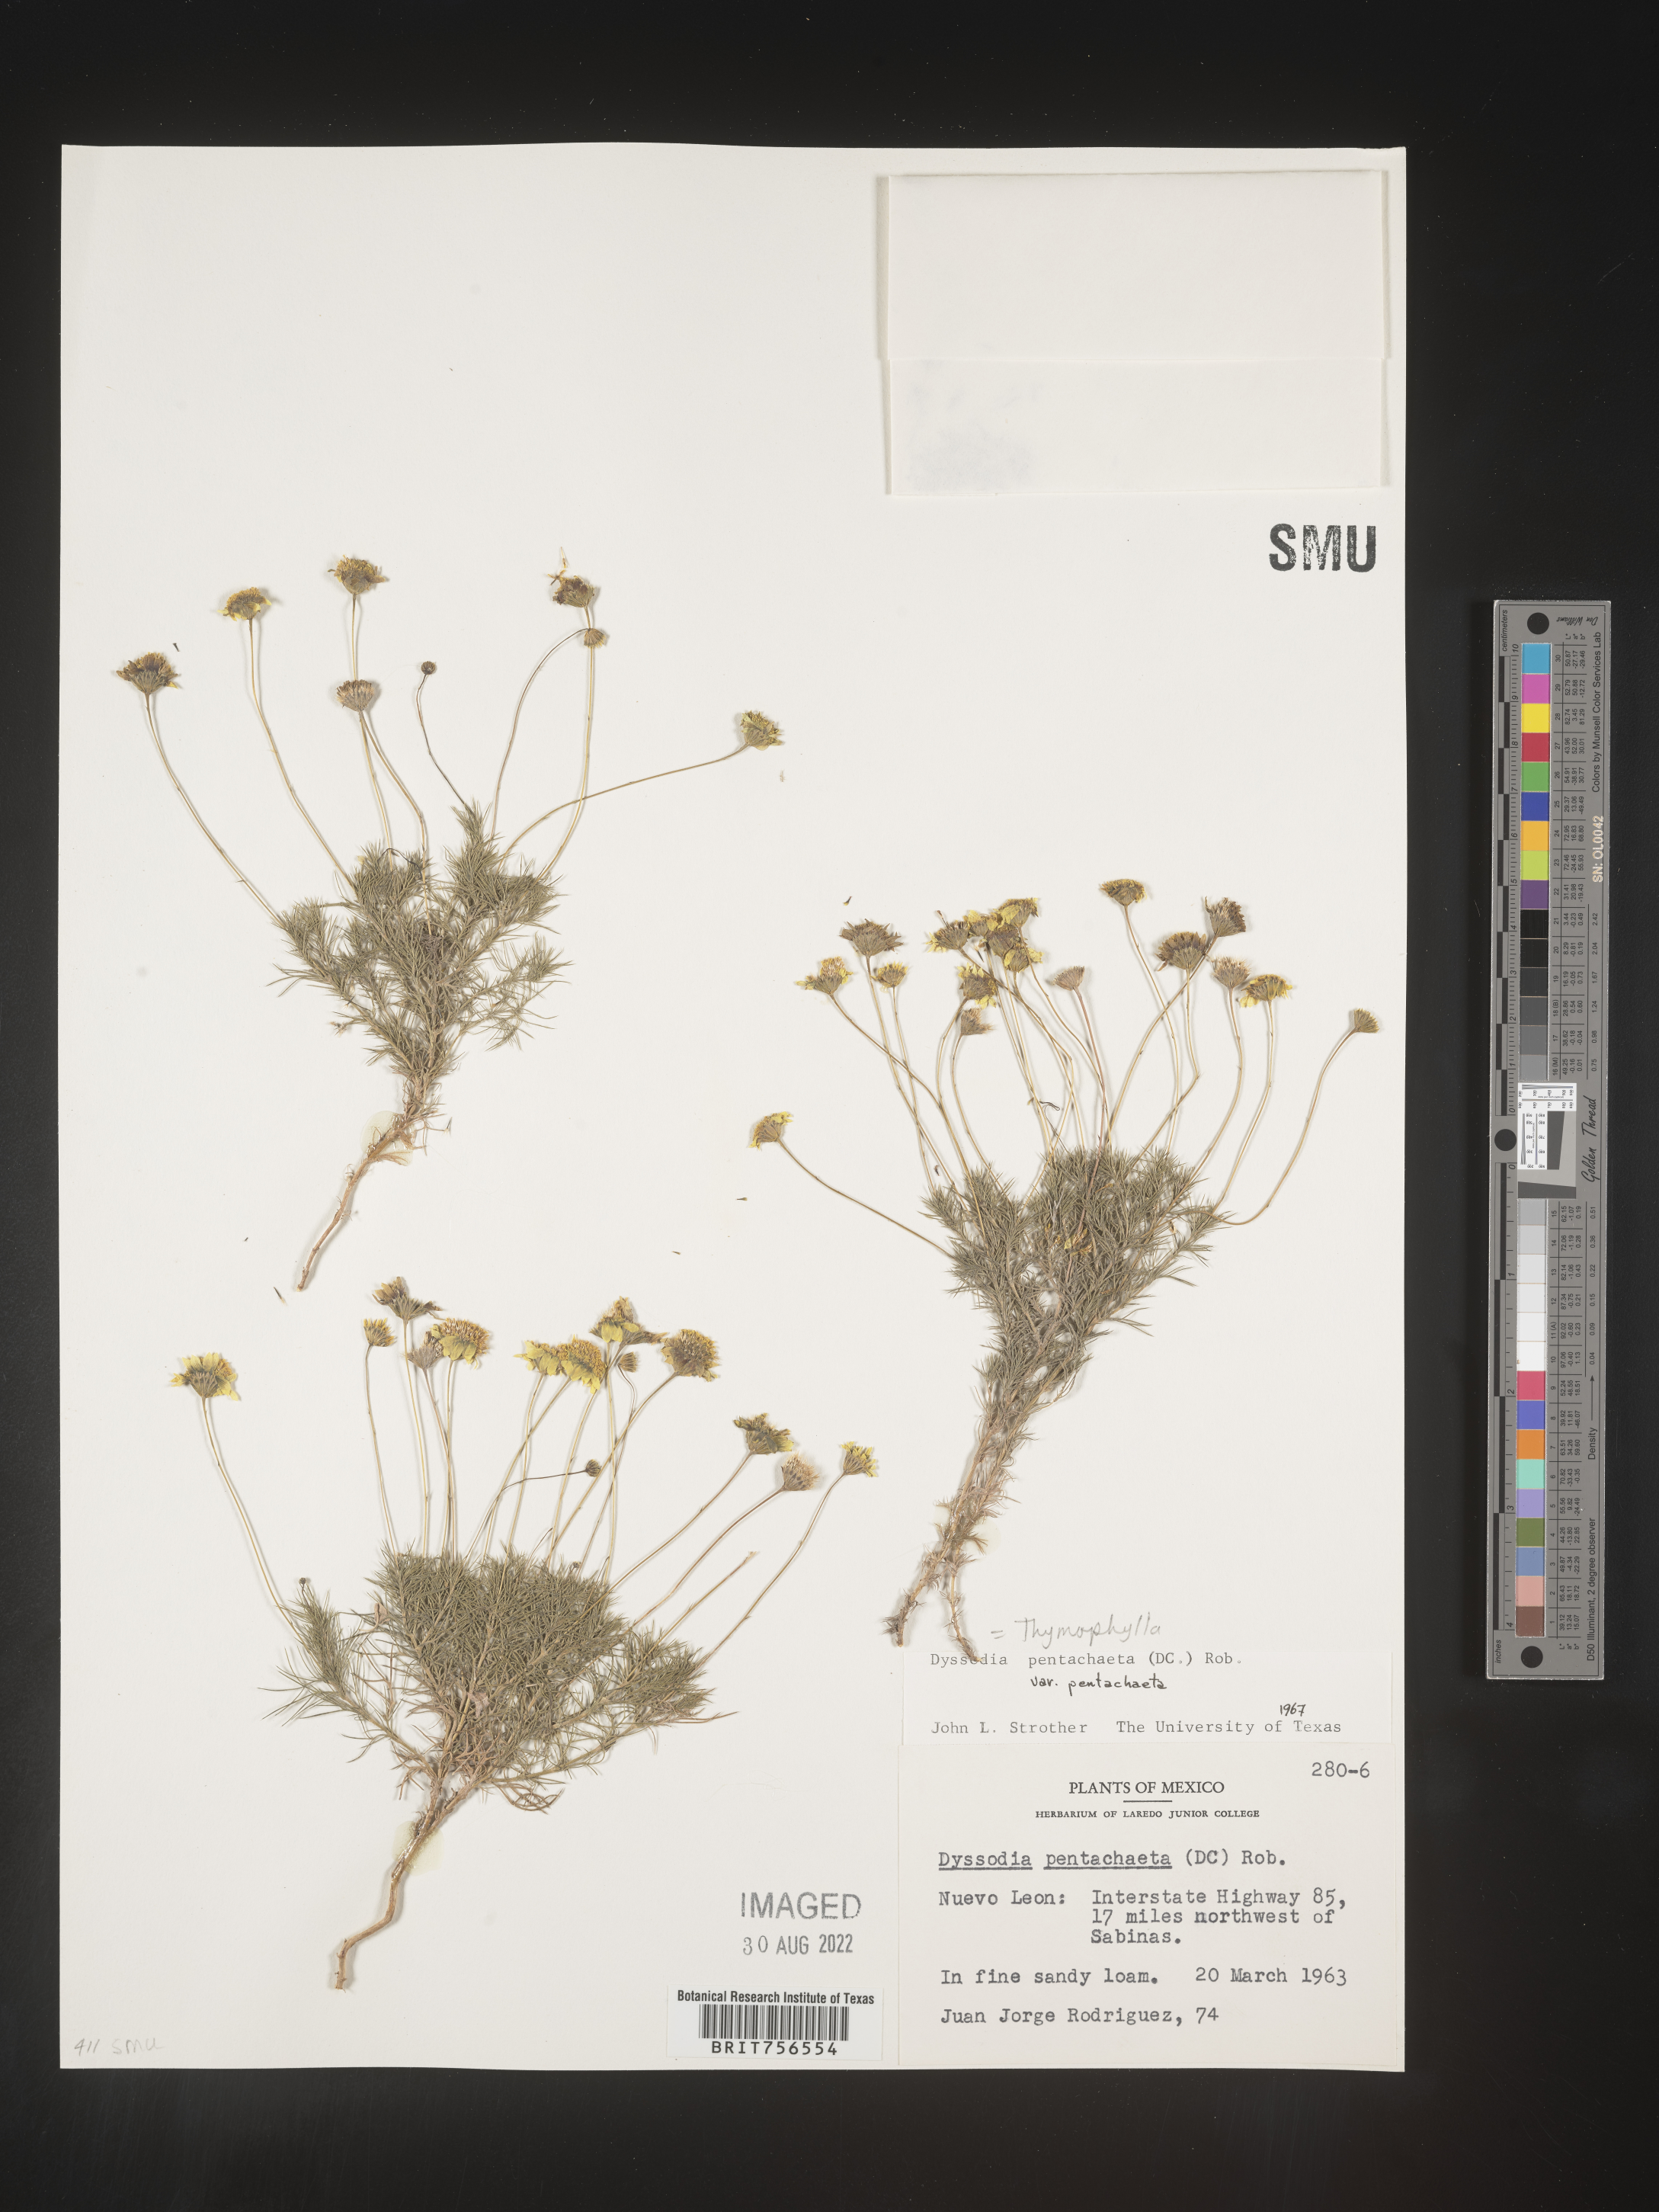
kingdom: Plantae
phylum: Tracheophyta
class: Magnoliopsida
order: Asterales
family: Asteraceae
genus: Thymophylla
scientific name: Thymophylla pentachaeta
